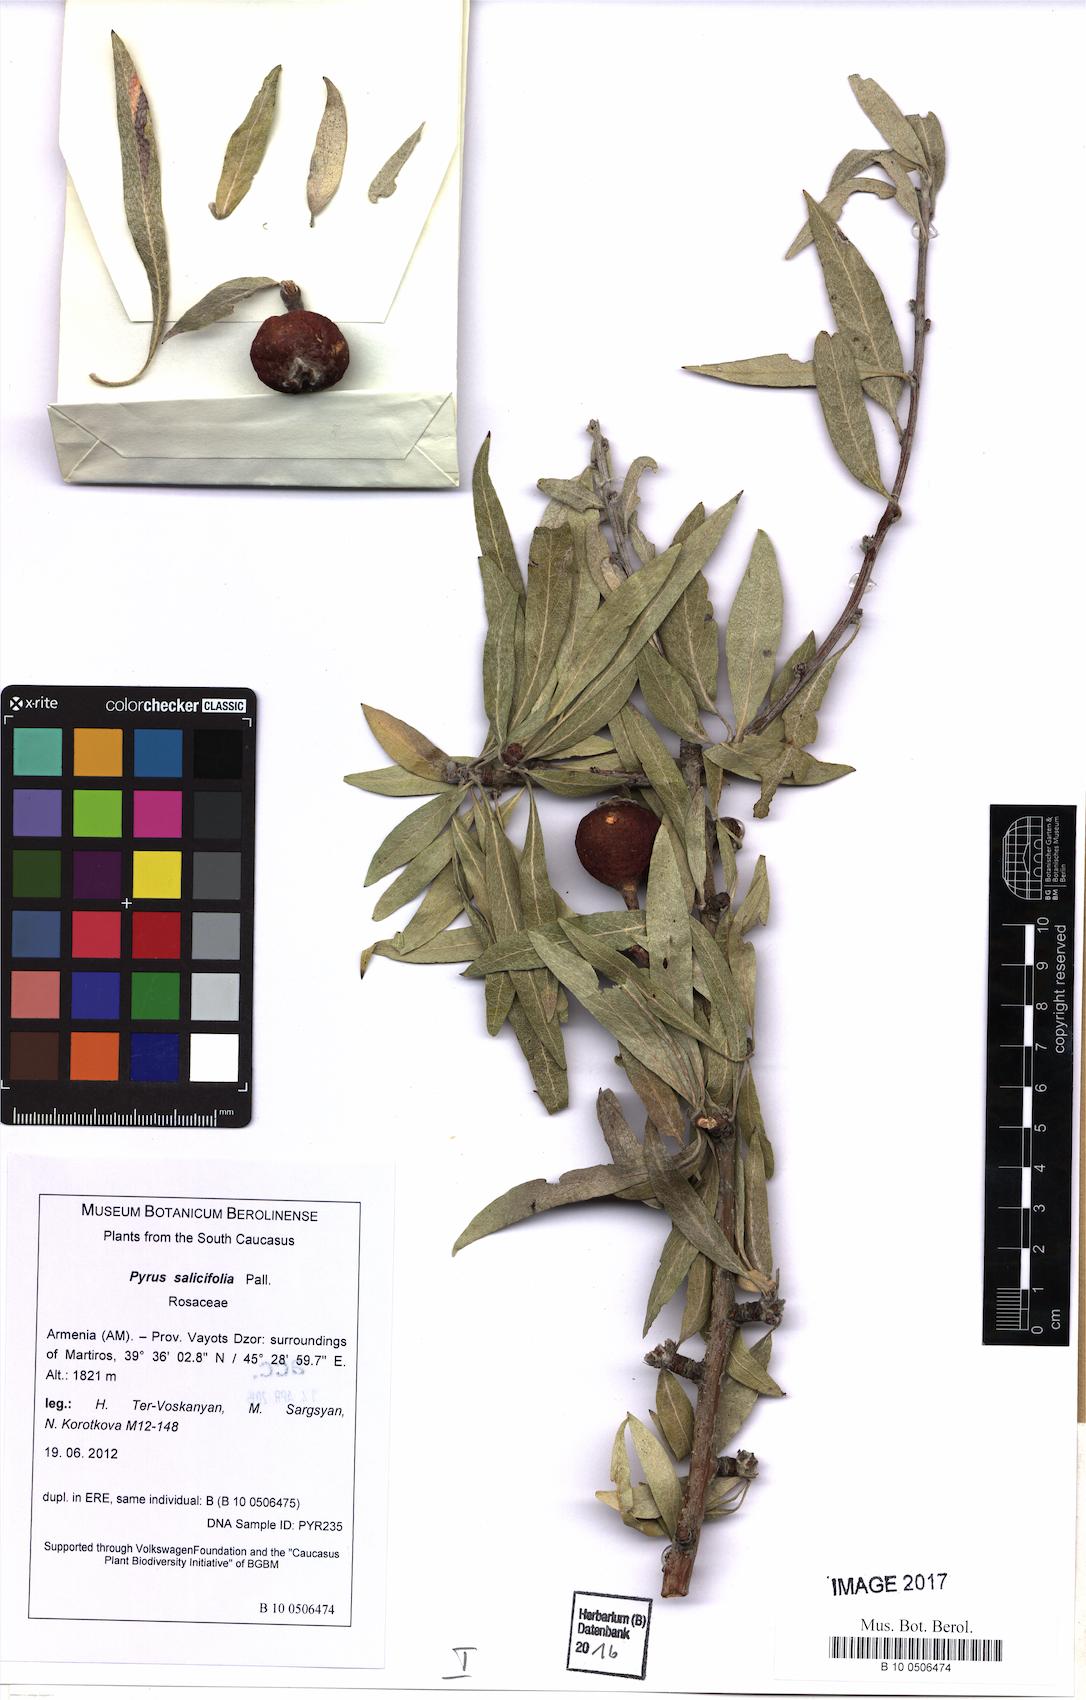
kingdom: Plantae
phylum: Tracheophyta
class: Magnoliopsida
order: Rosales
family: Rosaceae
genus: Pyrus
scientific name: Pyrus salicifolia
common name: Willow-leaved pear
